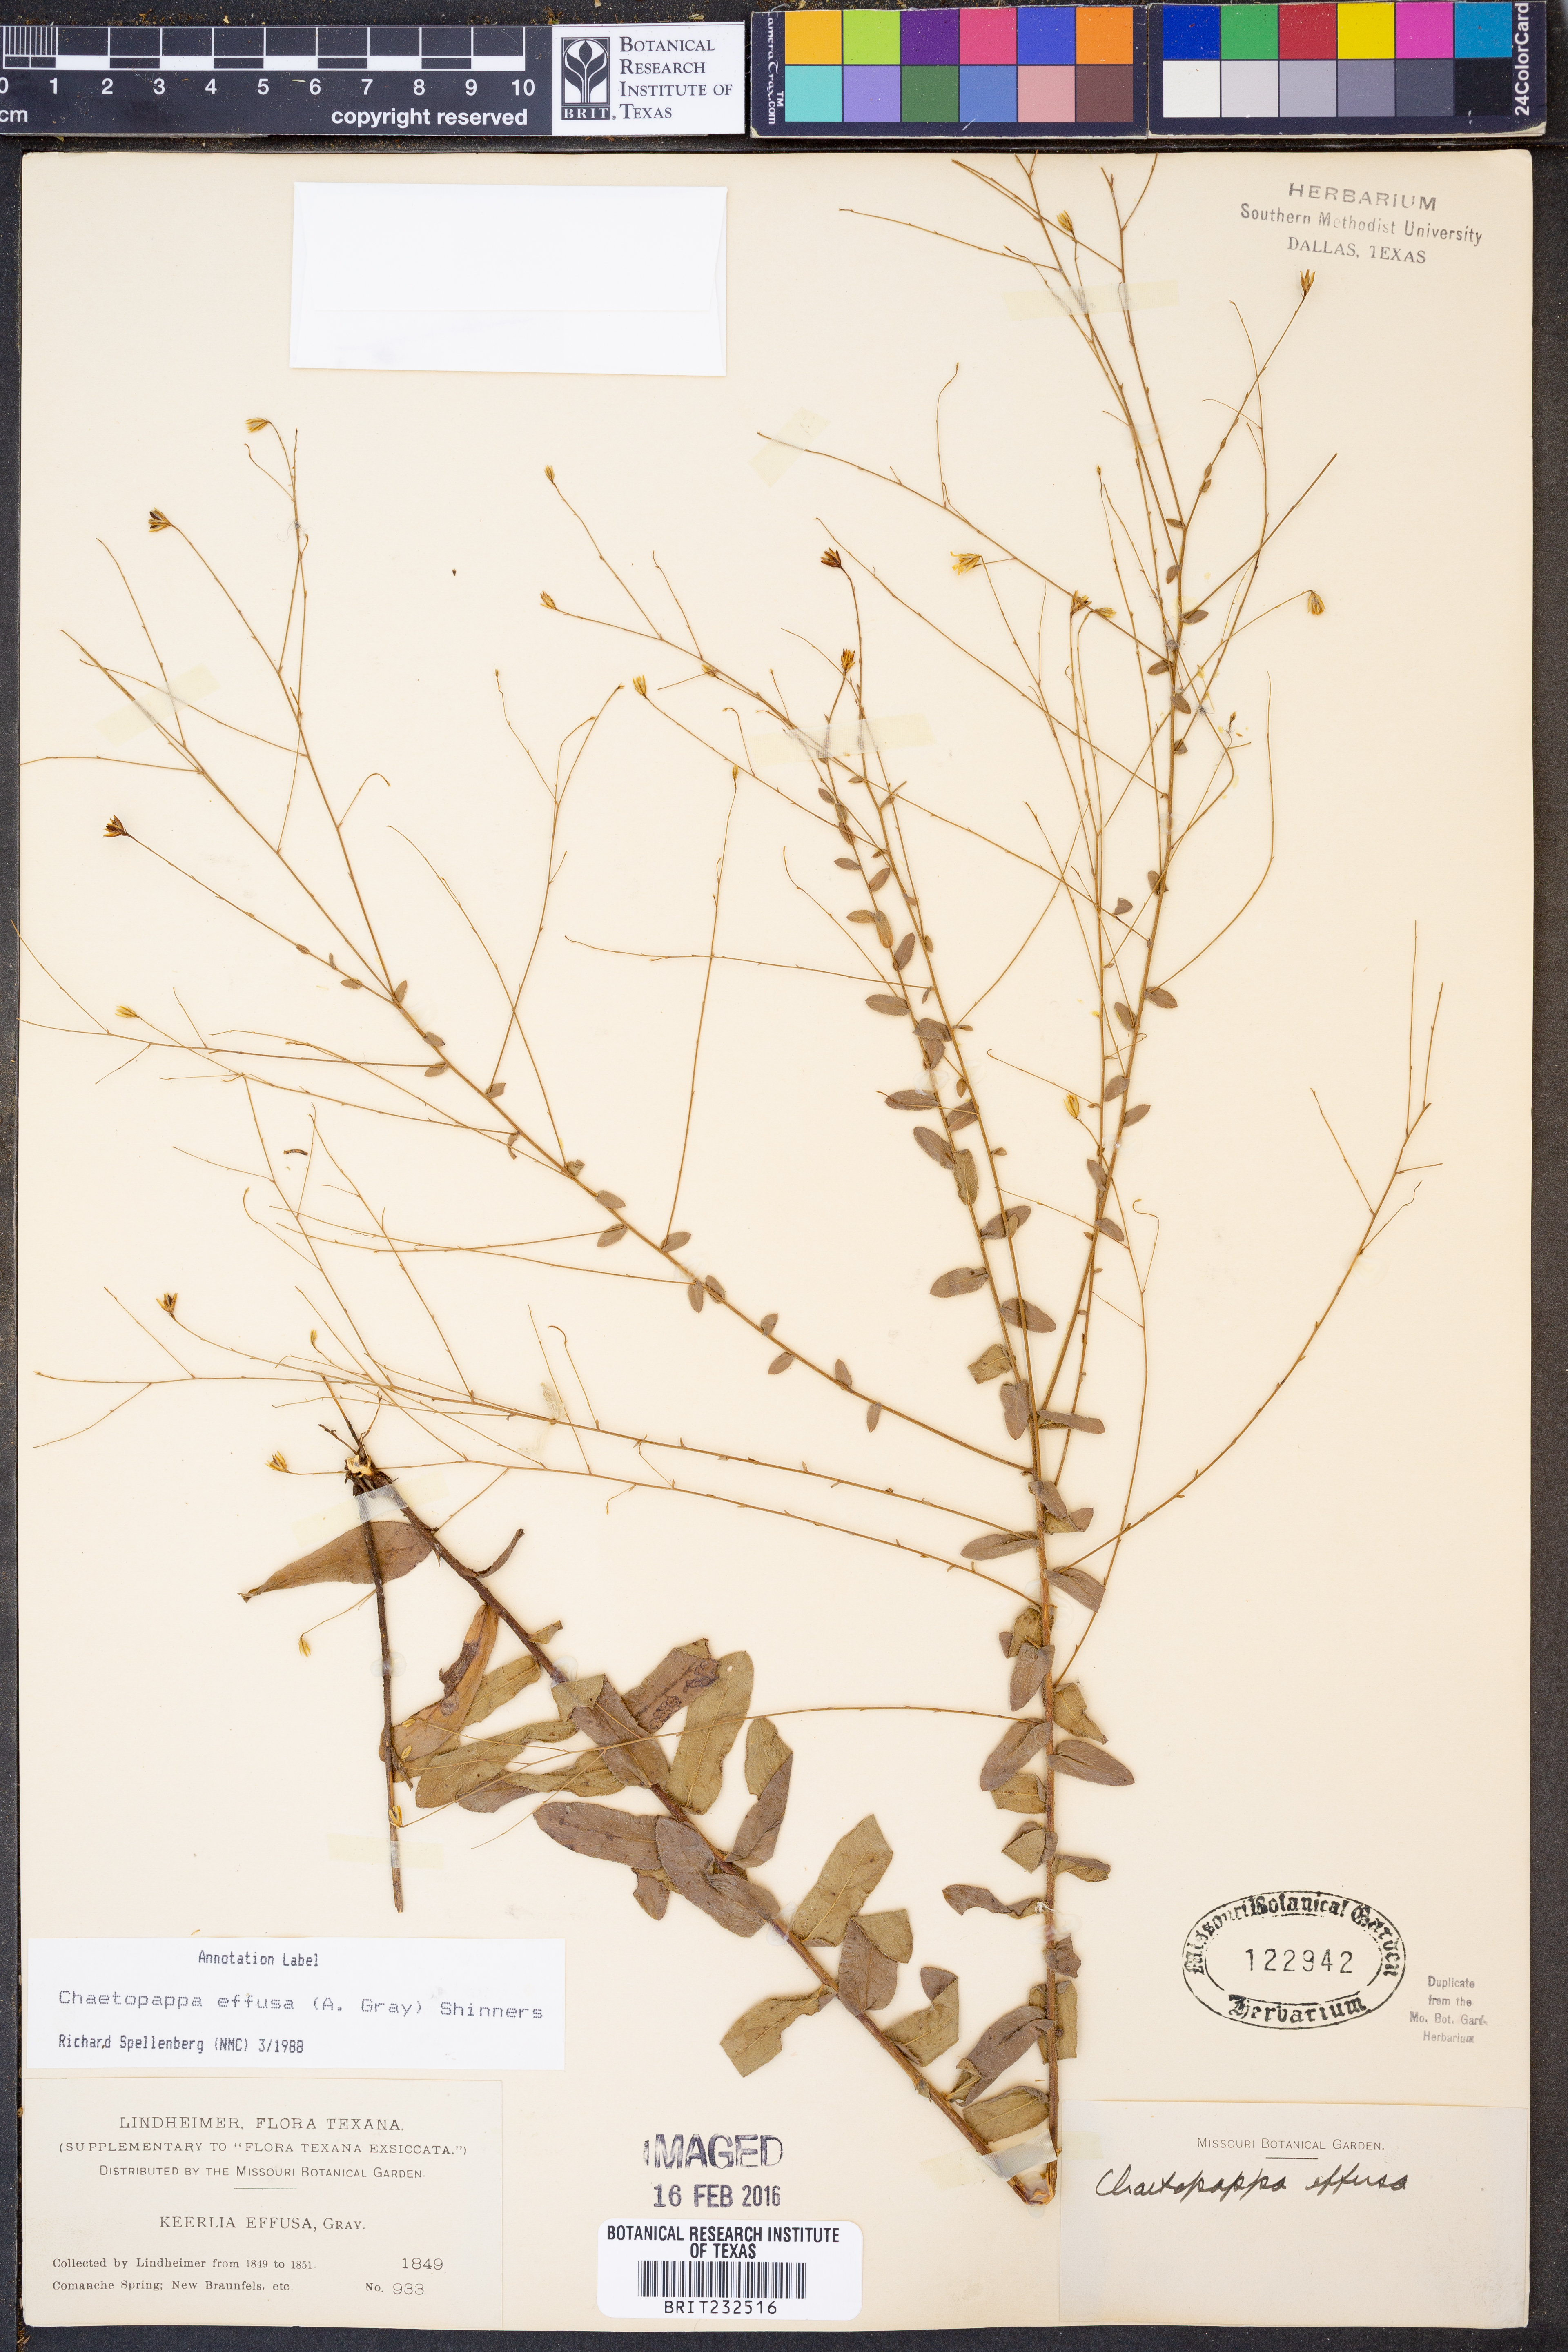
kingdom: Plantae
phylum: Tracheophyta
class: Magnoliopsida
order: Asterales
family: Asteraceae
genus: Chaetopappa
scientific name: Chaetopappa effusa
